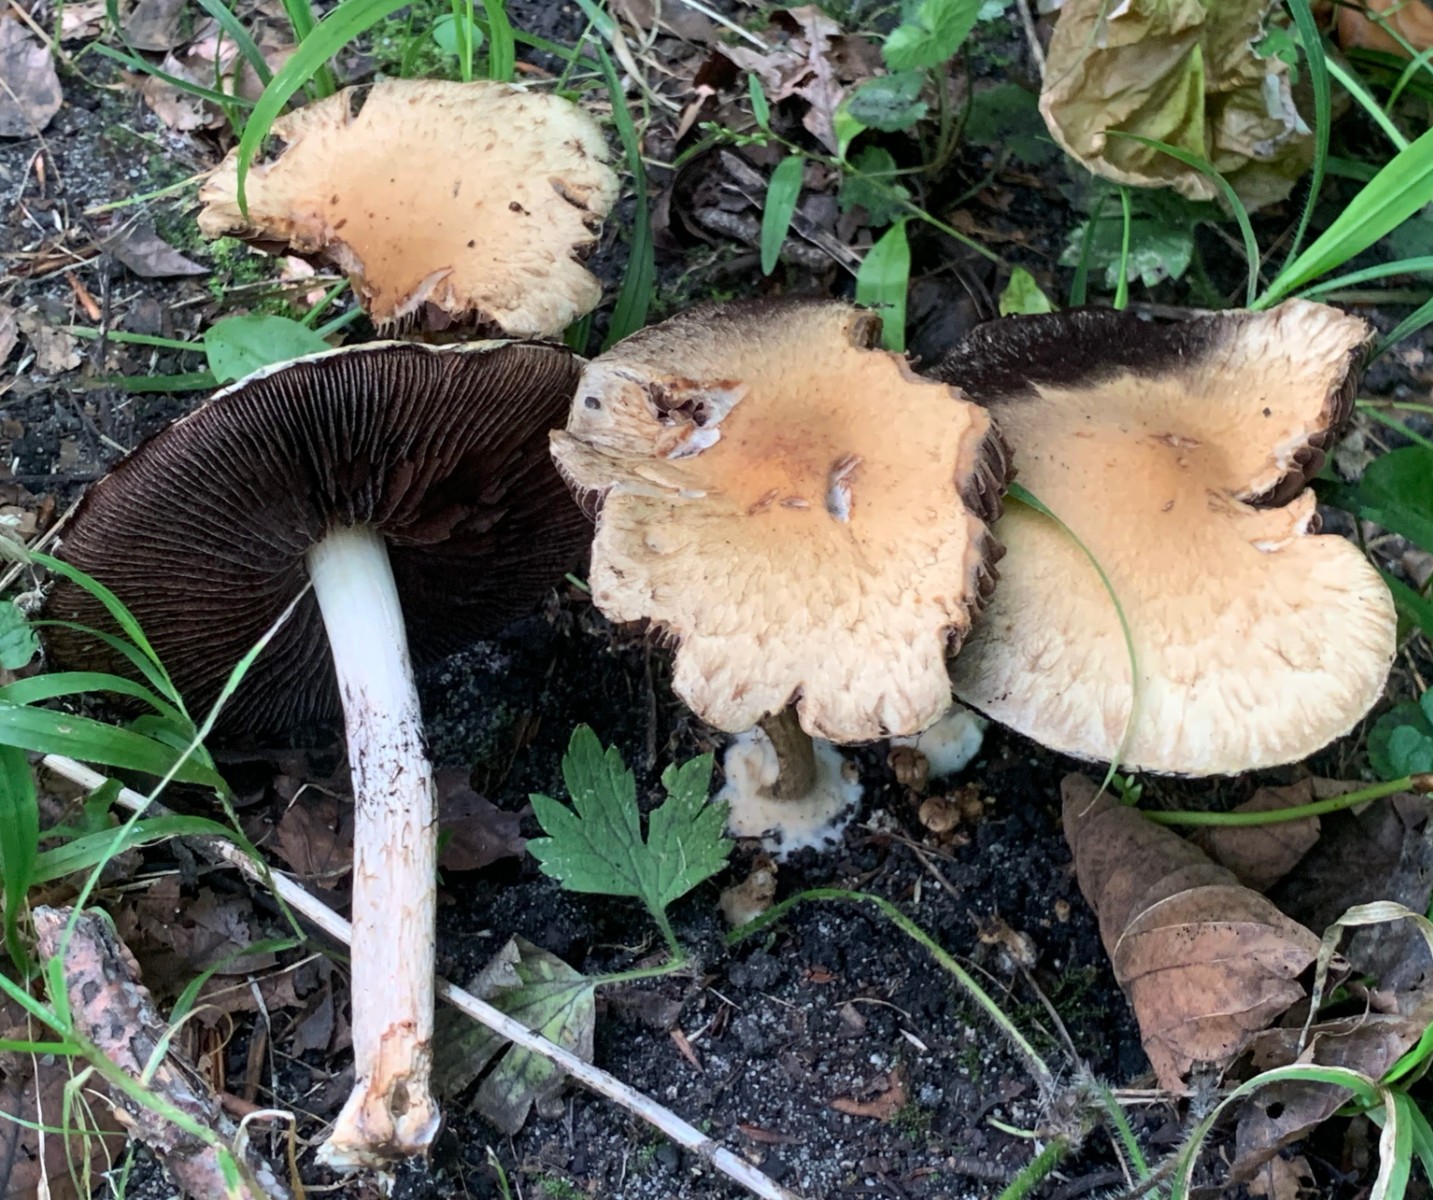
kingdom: Fungi
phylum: Basidiomycota
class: Agaricomycetes
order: Agaricales
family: Psathyrellaceae
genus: Lacrymaria
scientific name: Lacrymaria lacrymabunda
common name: grædende mørkhat
